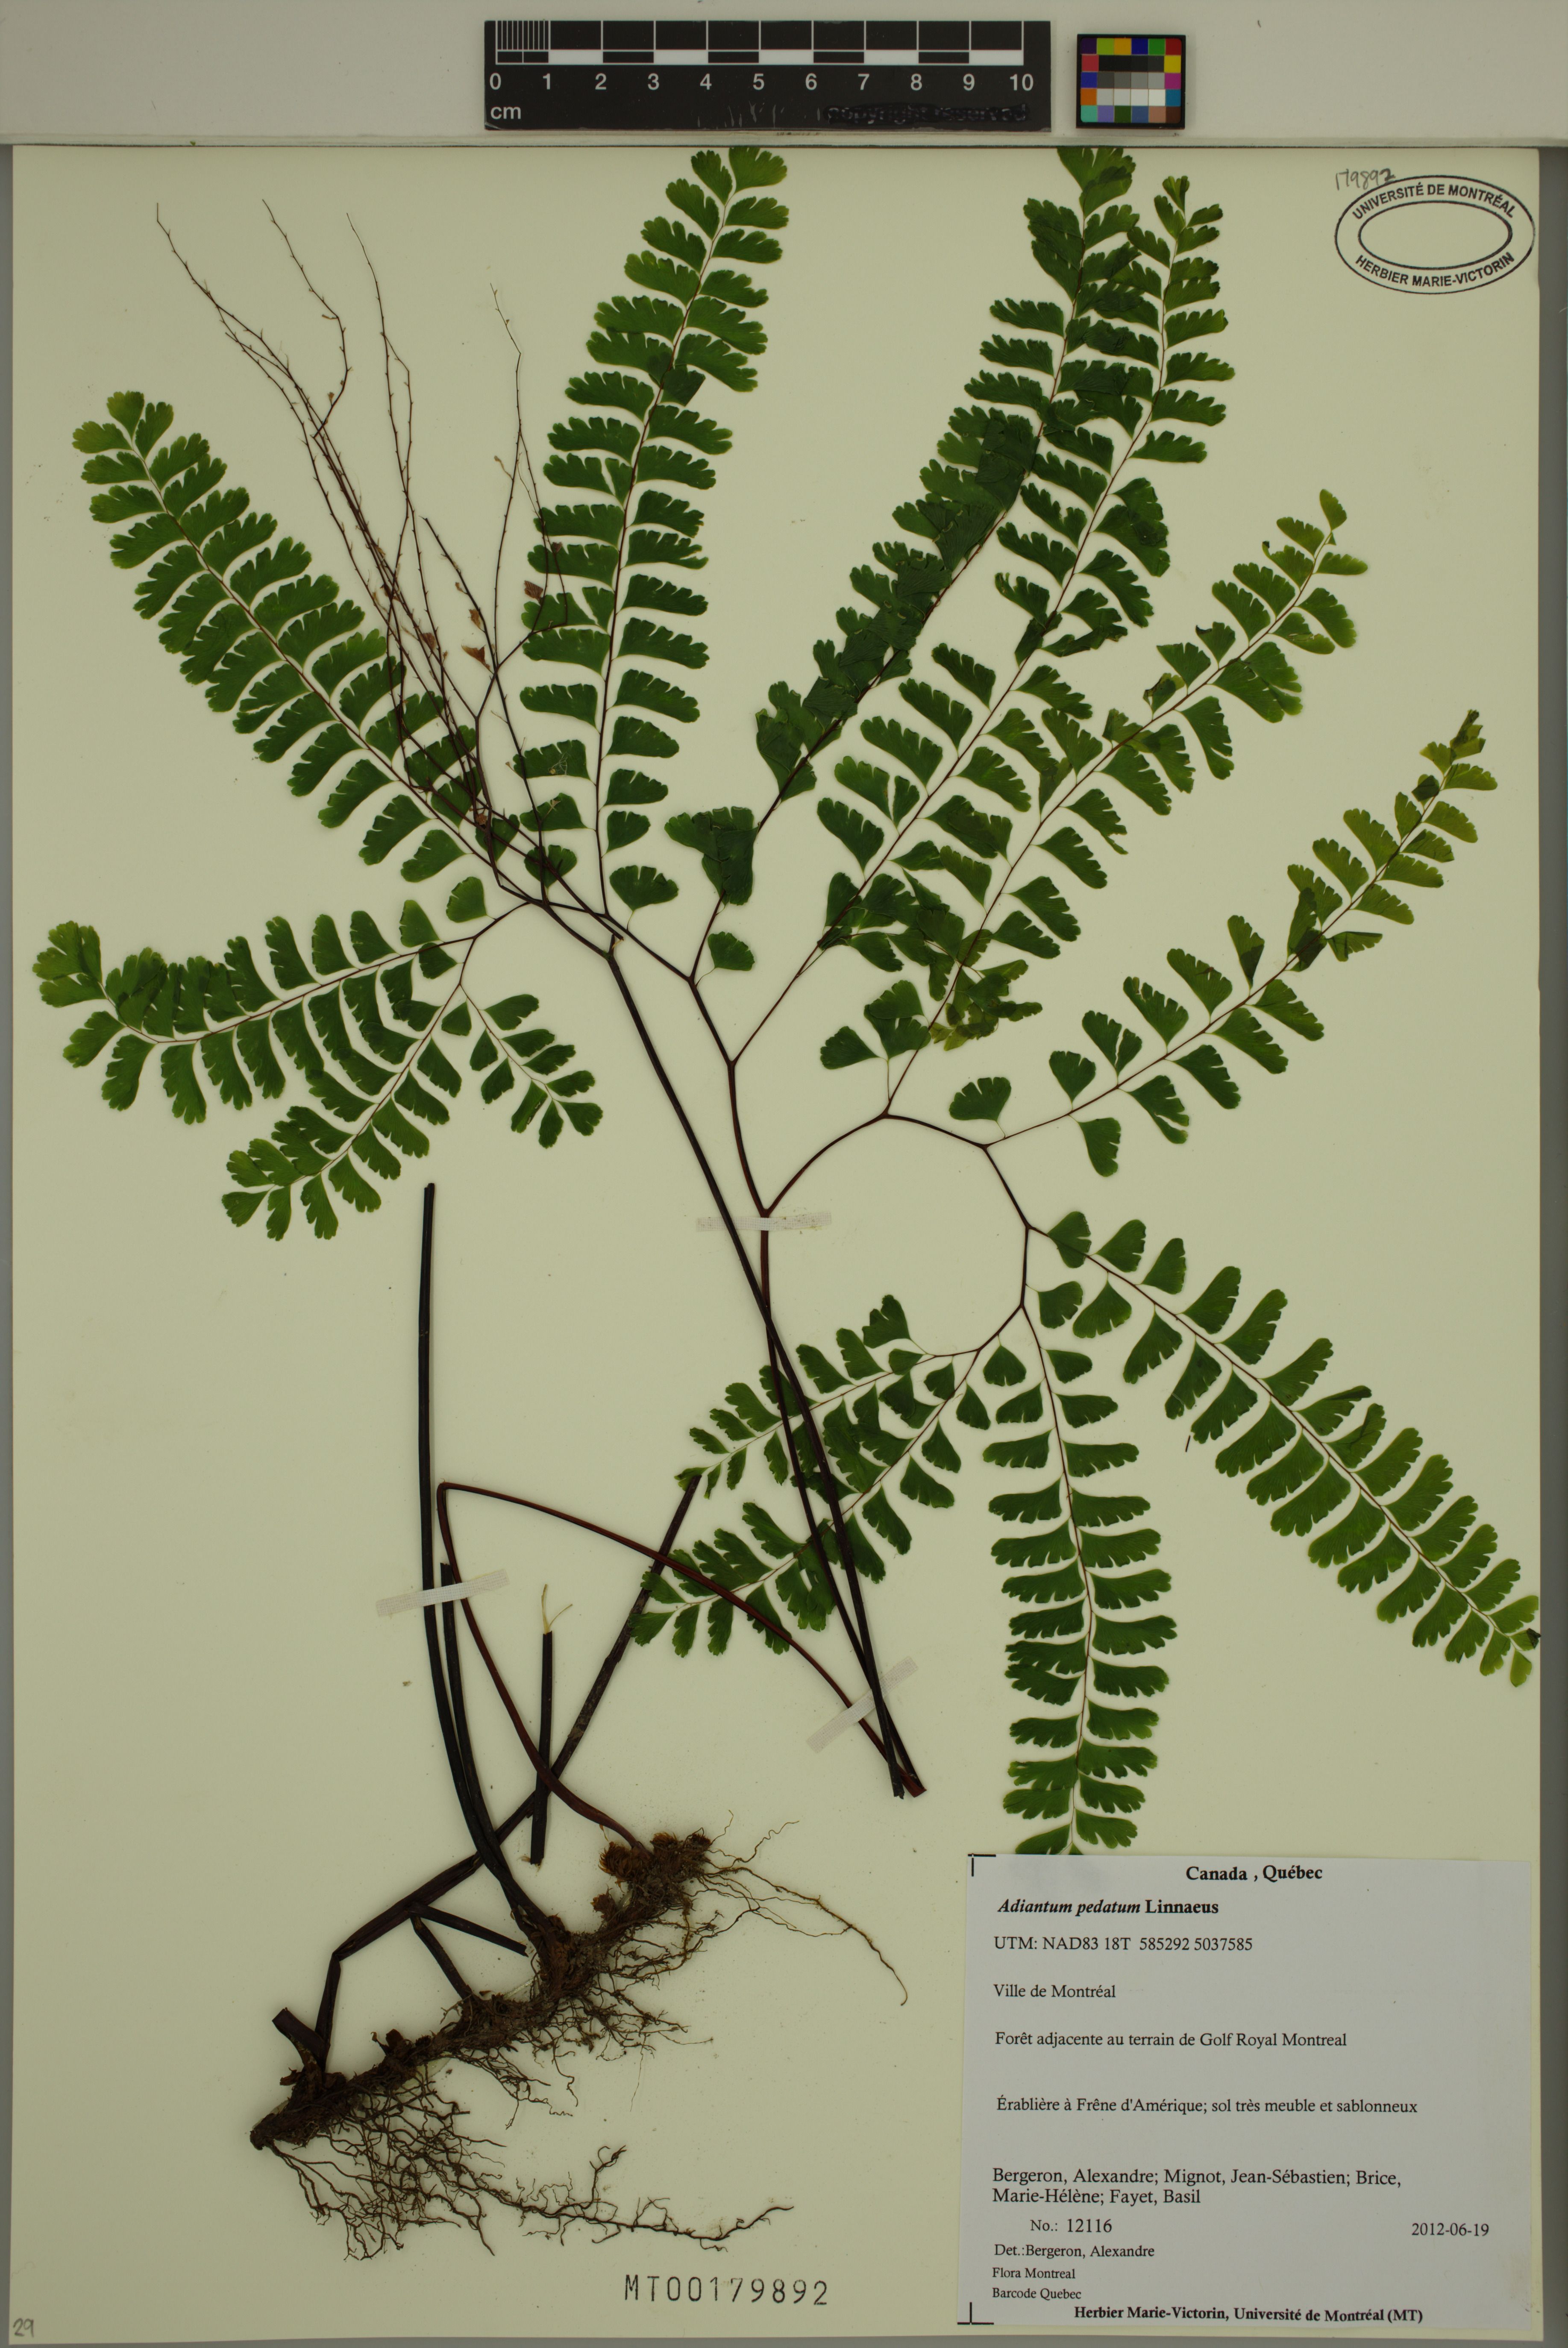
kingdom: Plantae
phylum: Tracheophyta
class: Polypodiopsida
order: Polypodiales
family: Pteridaceae
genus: Adiantum
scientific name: Adiantum pedatum
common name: Five-finger fern
